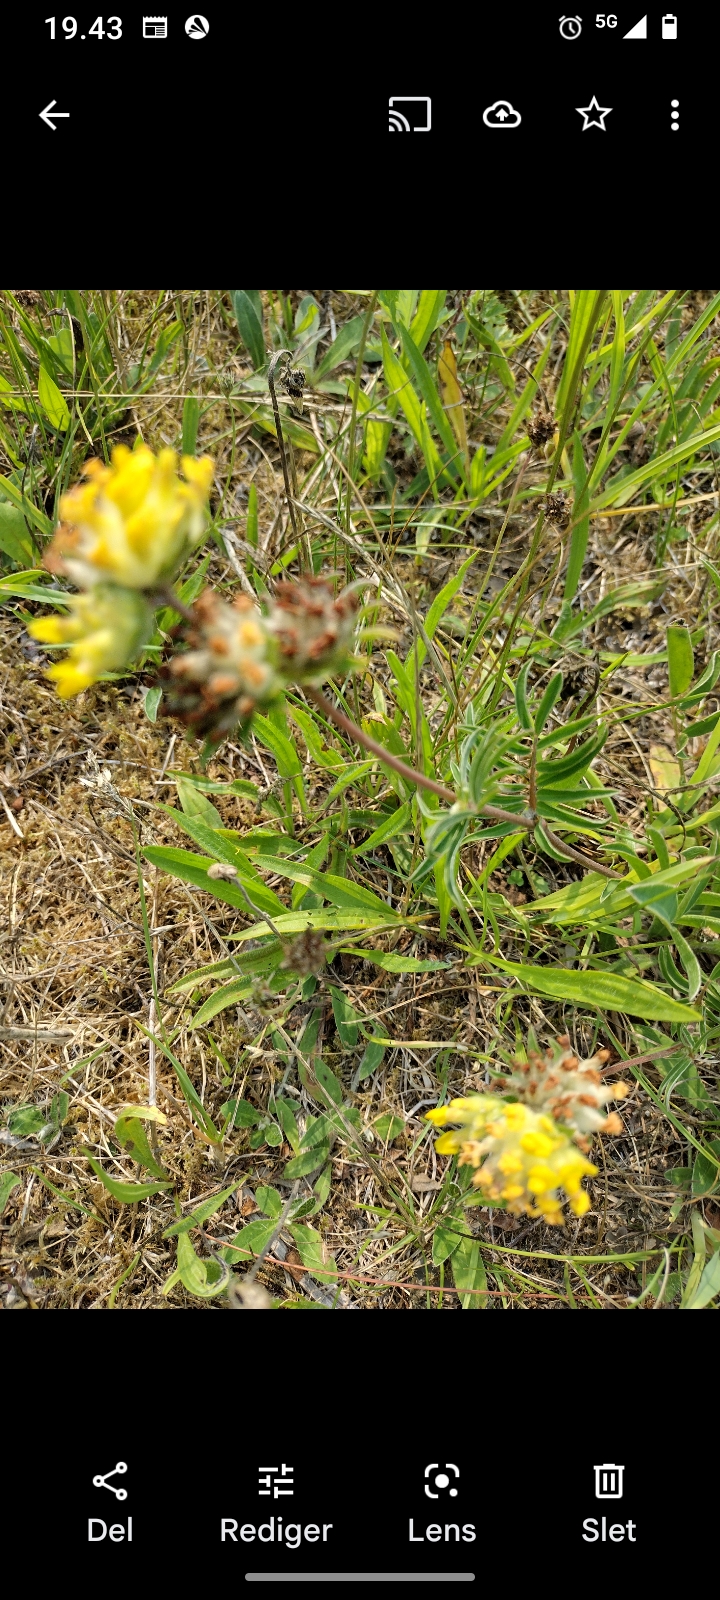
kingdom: Plantae
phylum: Tracheophyta
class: Magnoliopsida
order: Fabales
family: Fabaceae
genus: Anthyllis
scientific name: Anthyllis vulneraria
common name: Rundbælg
